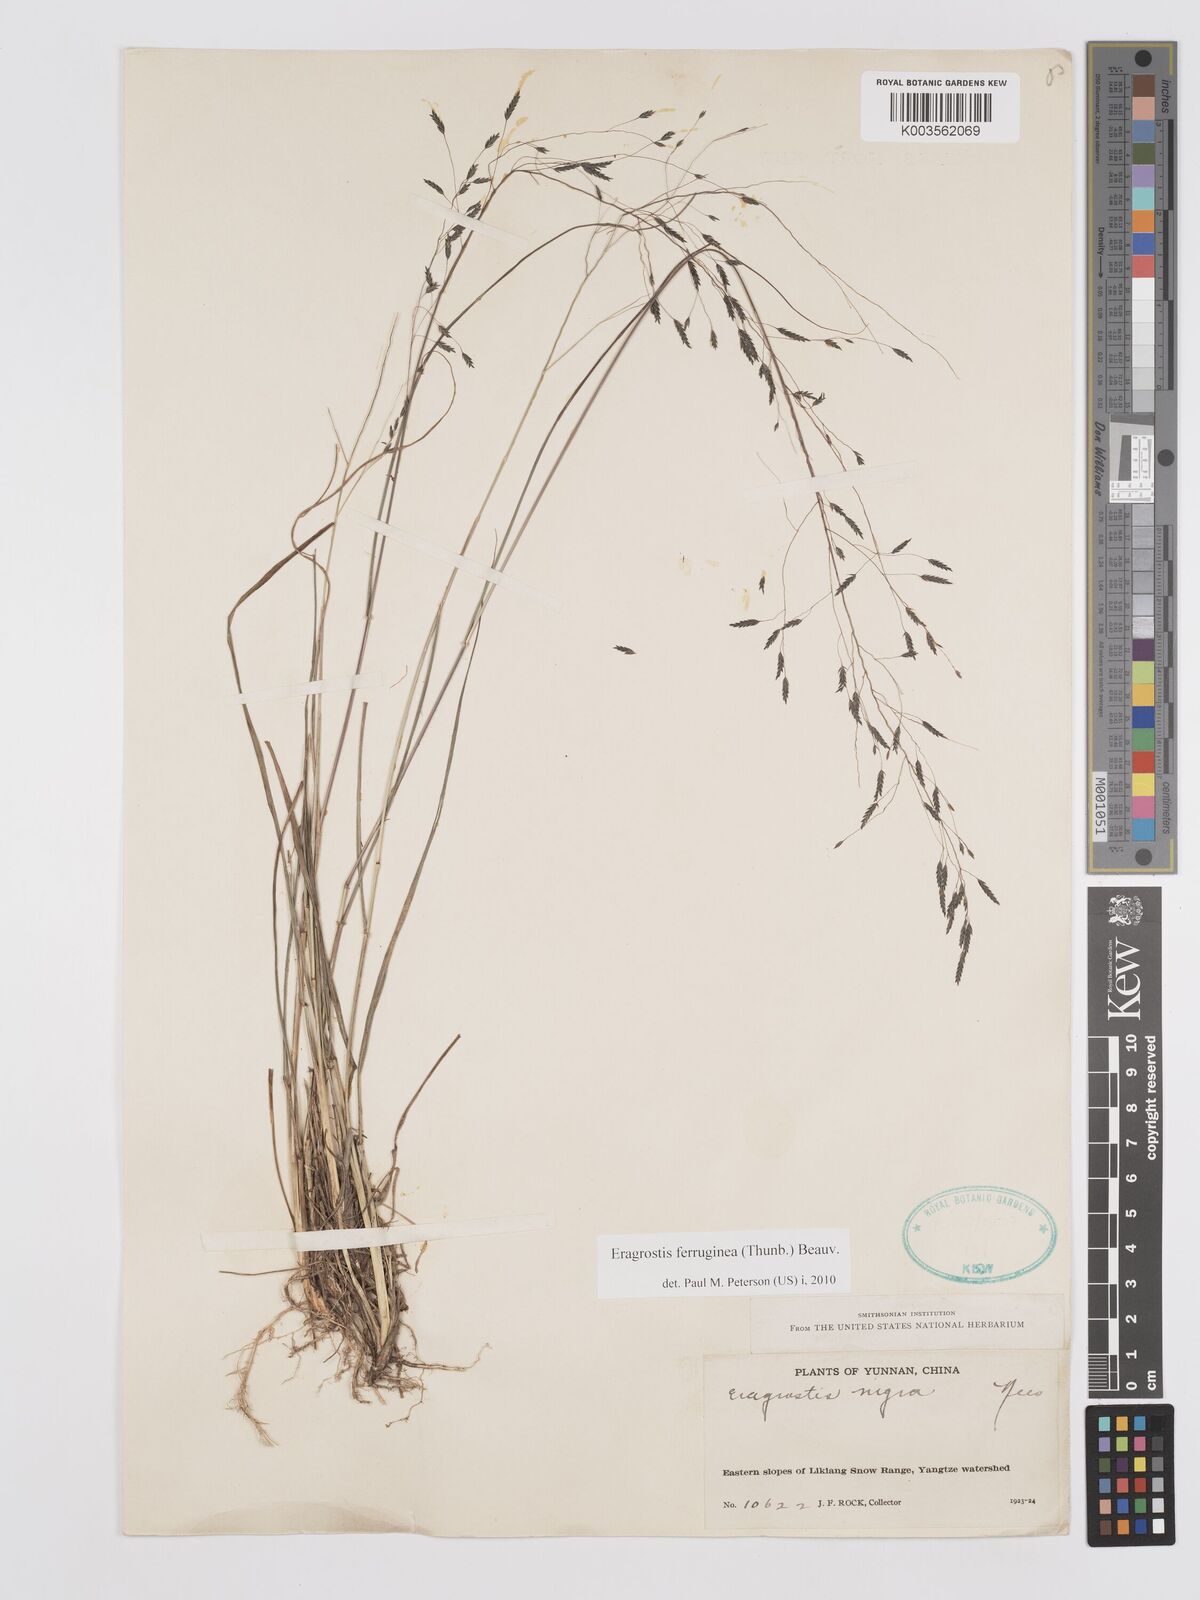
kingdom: Plantae
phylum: Tracheophyta
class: Liliopsida
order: Poales
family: Poaceae
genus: Eragrostis
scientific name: Eragrostis ferruginea
